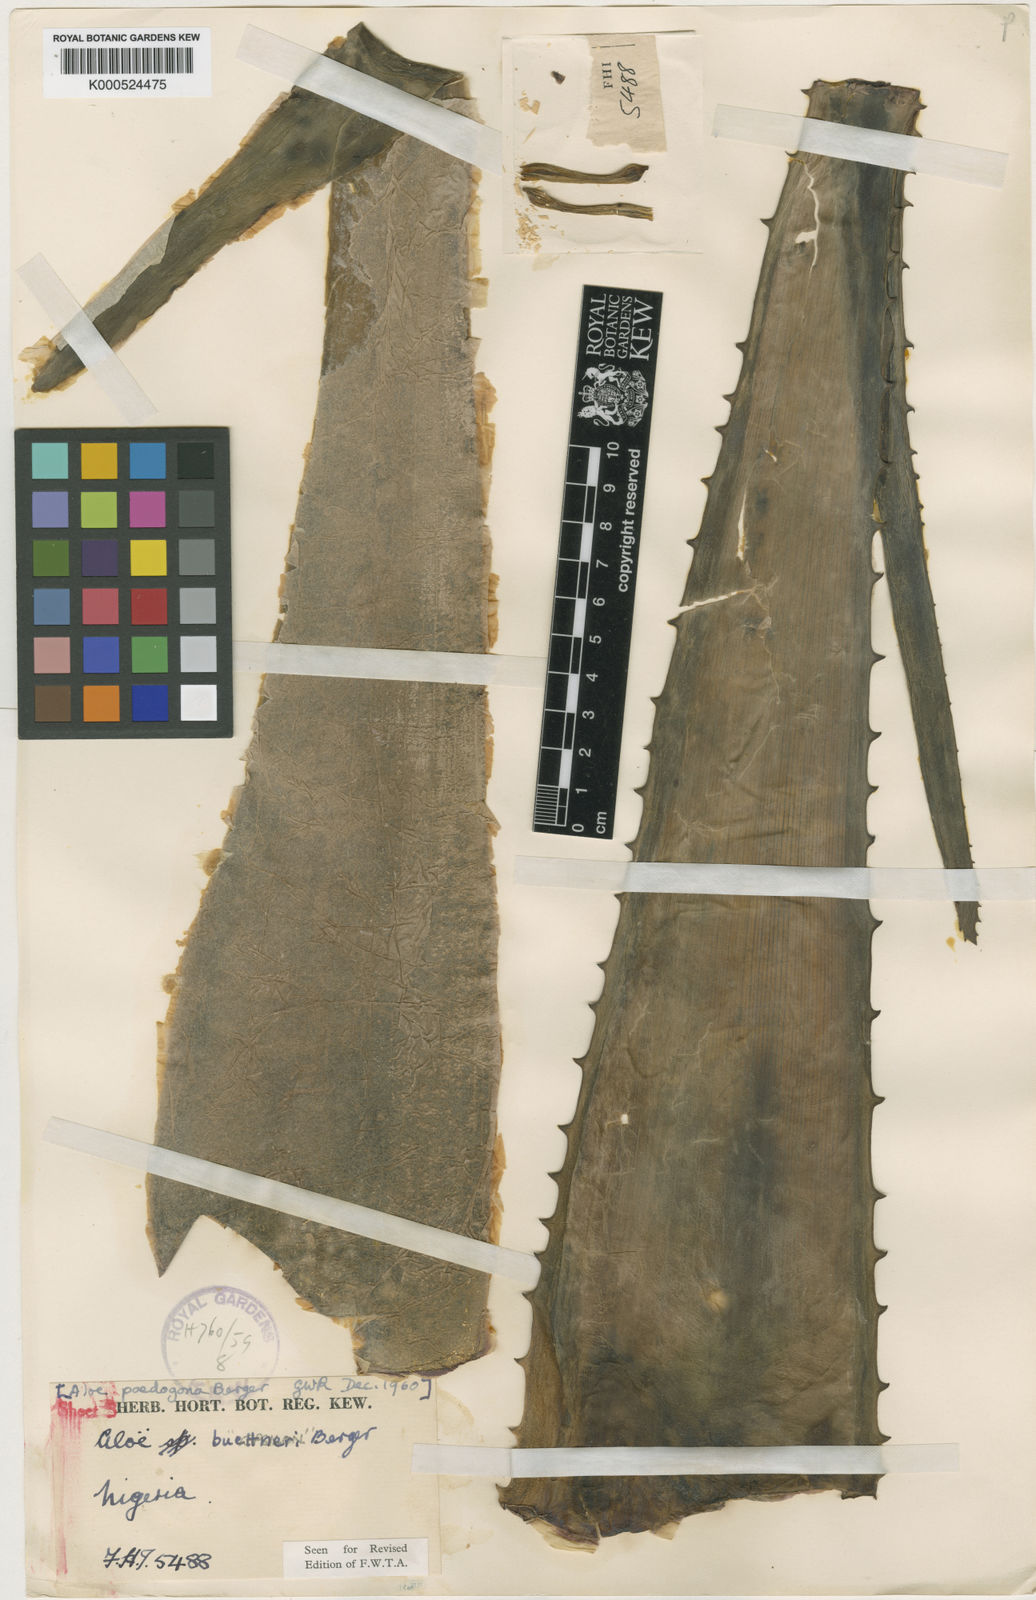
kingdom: Plantae
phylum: Tracheophyta
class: Liliopsida
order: Asparagales
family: Asphodelaceae
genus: Aloe
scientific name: Aloe buettneri
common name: West african aloe
